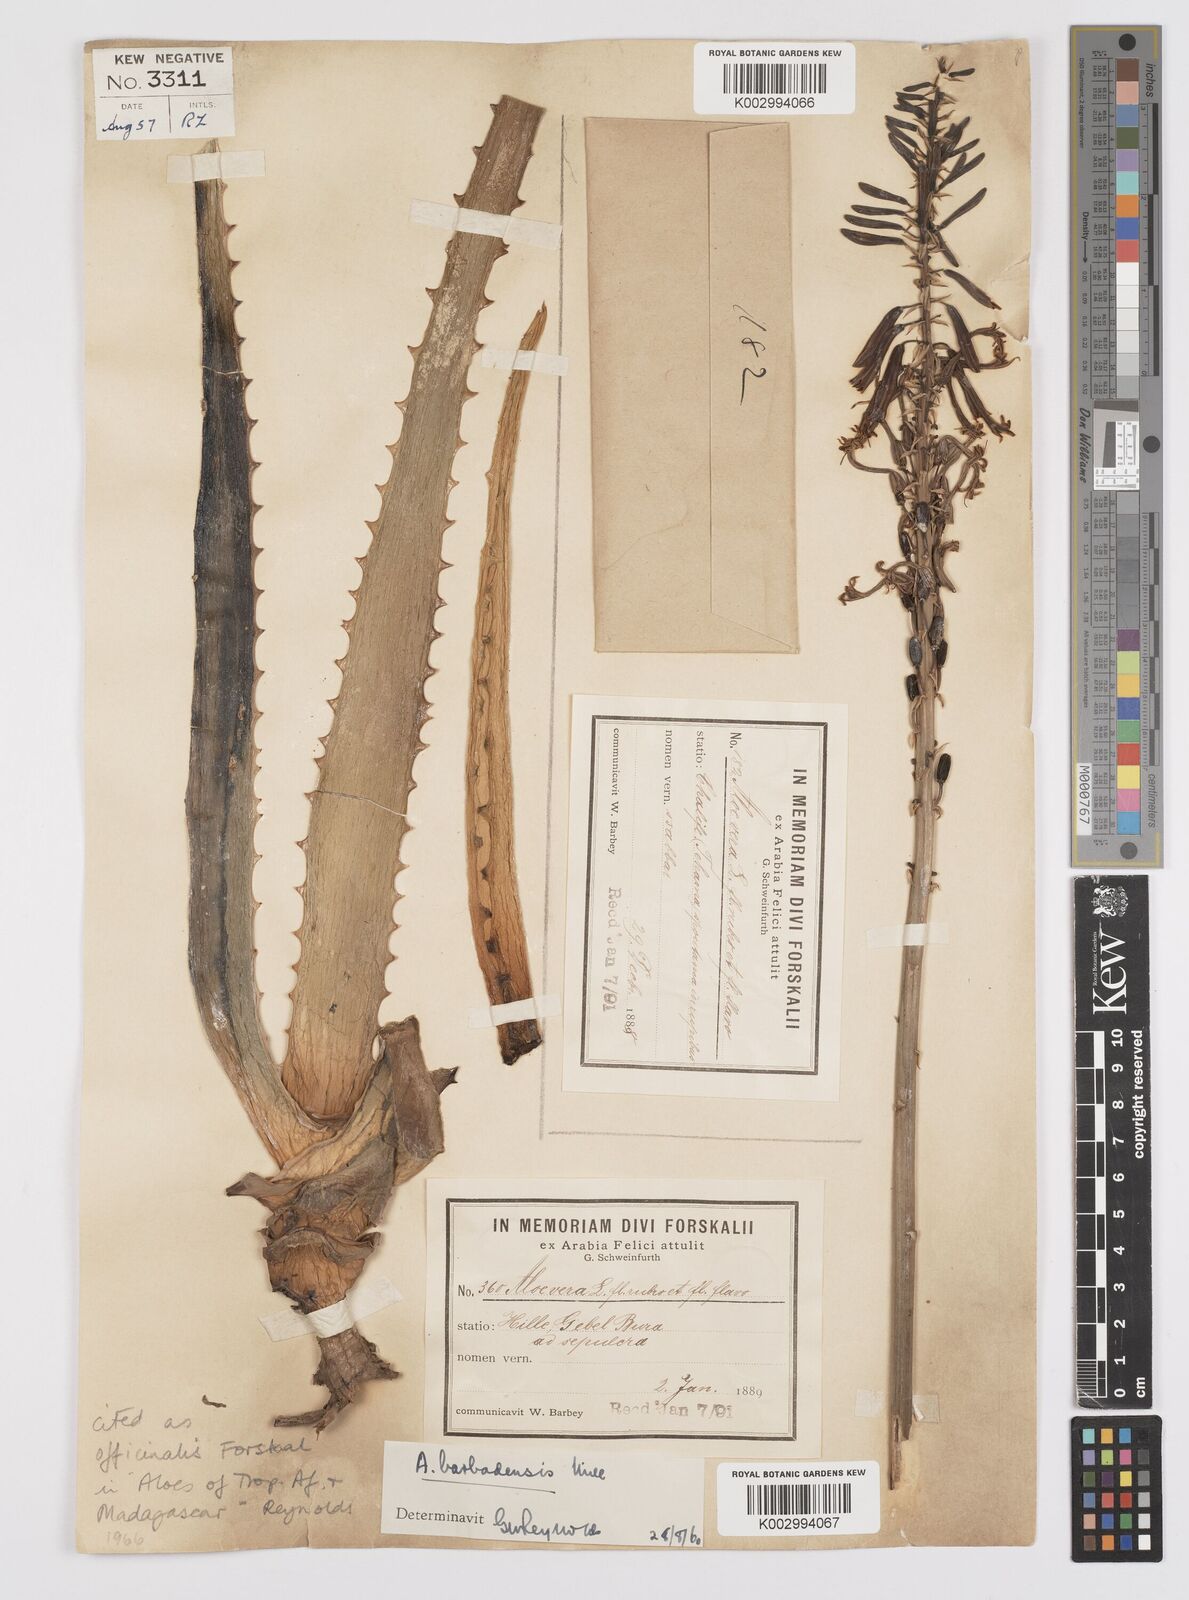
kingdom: Plantae
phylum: Tracheophyta
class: Liliopsida
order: Asparagales
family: Asphodelaceae
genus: Aloe
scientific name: Aloe officinalis
